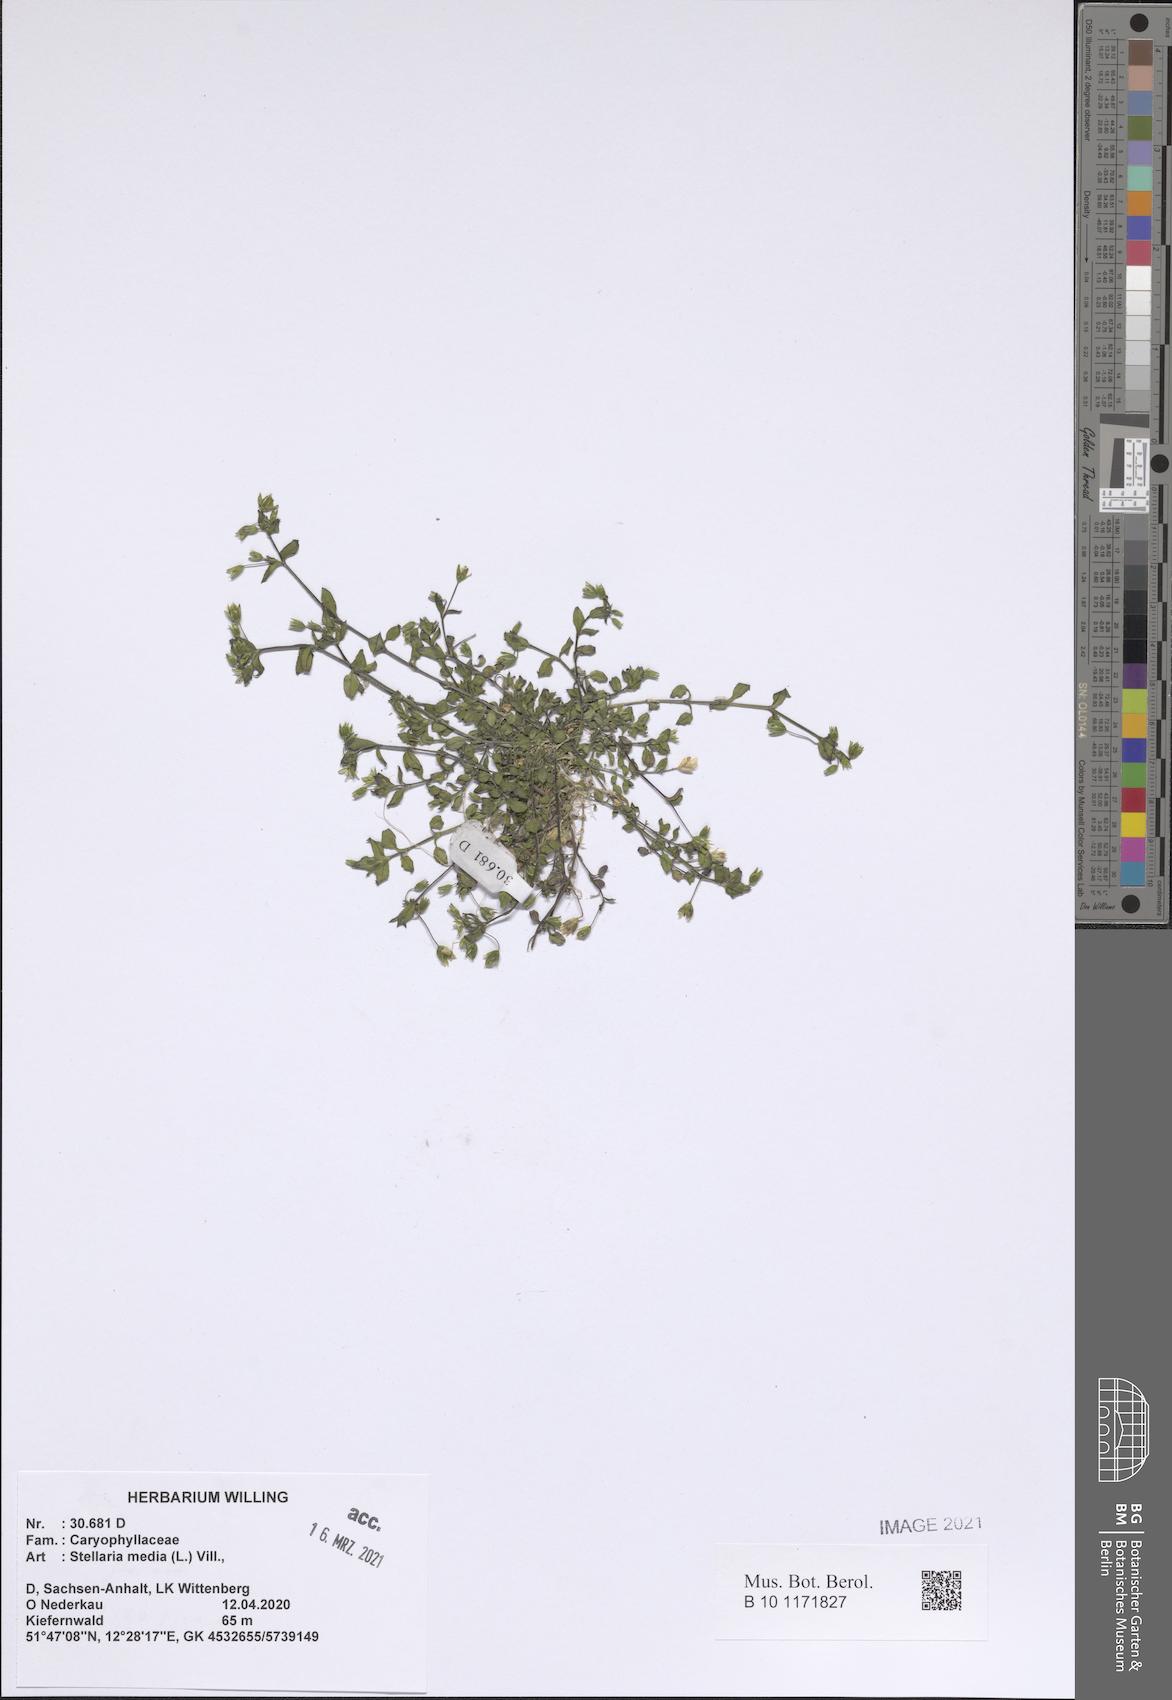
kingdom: Plantae
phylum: Tracheophyta
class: Magnoliopsida
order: Caryophyllales
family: Caryophyllaceae
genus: Stellaria
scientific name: Stellaria media
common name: Common chickweed
